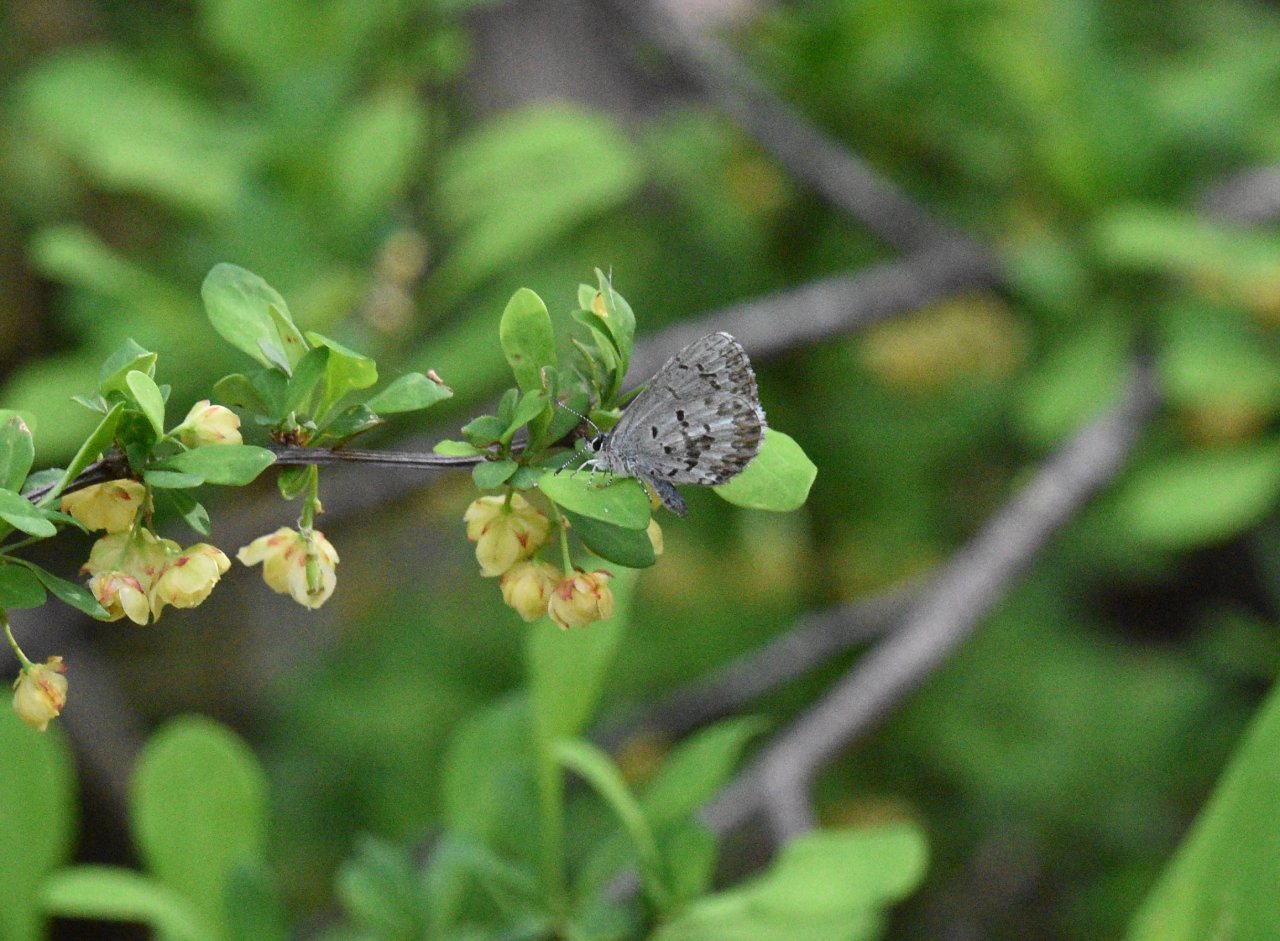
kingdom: Animalia
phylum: Arthropoda
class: Insecta
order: Lepidoptera
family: Lycaenidae
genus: Celastrina
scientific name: Celastrina lucia
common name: Northern Spring Azure
